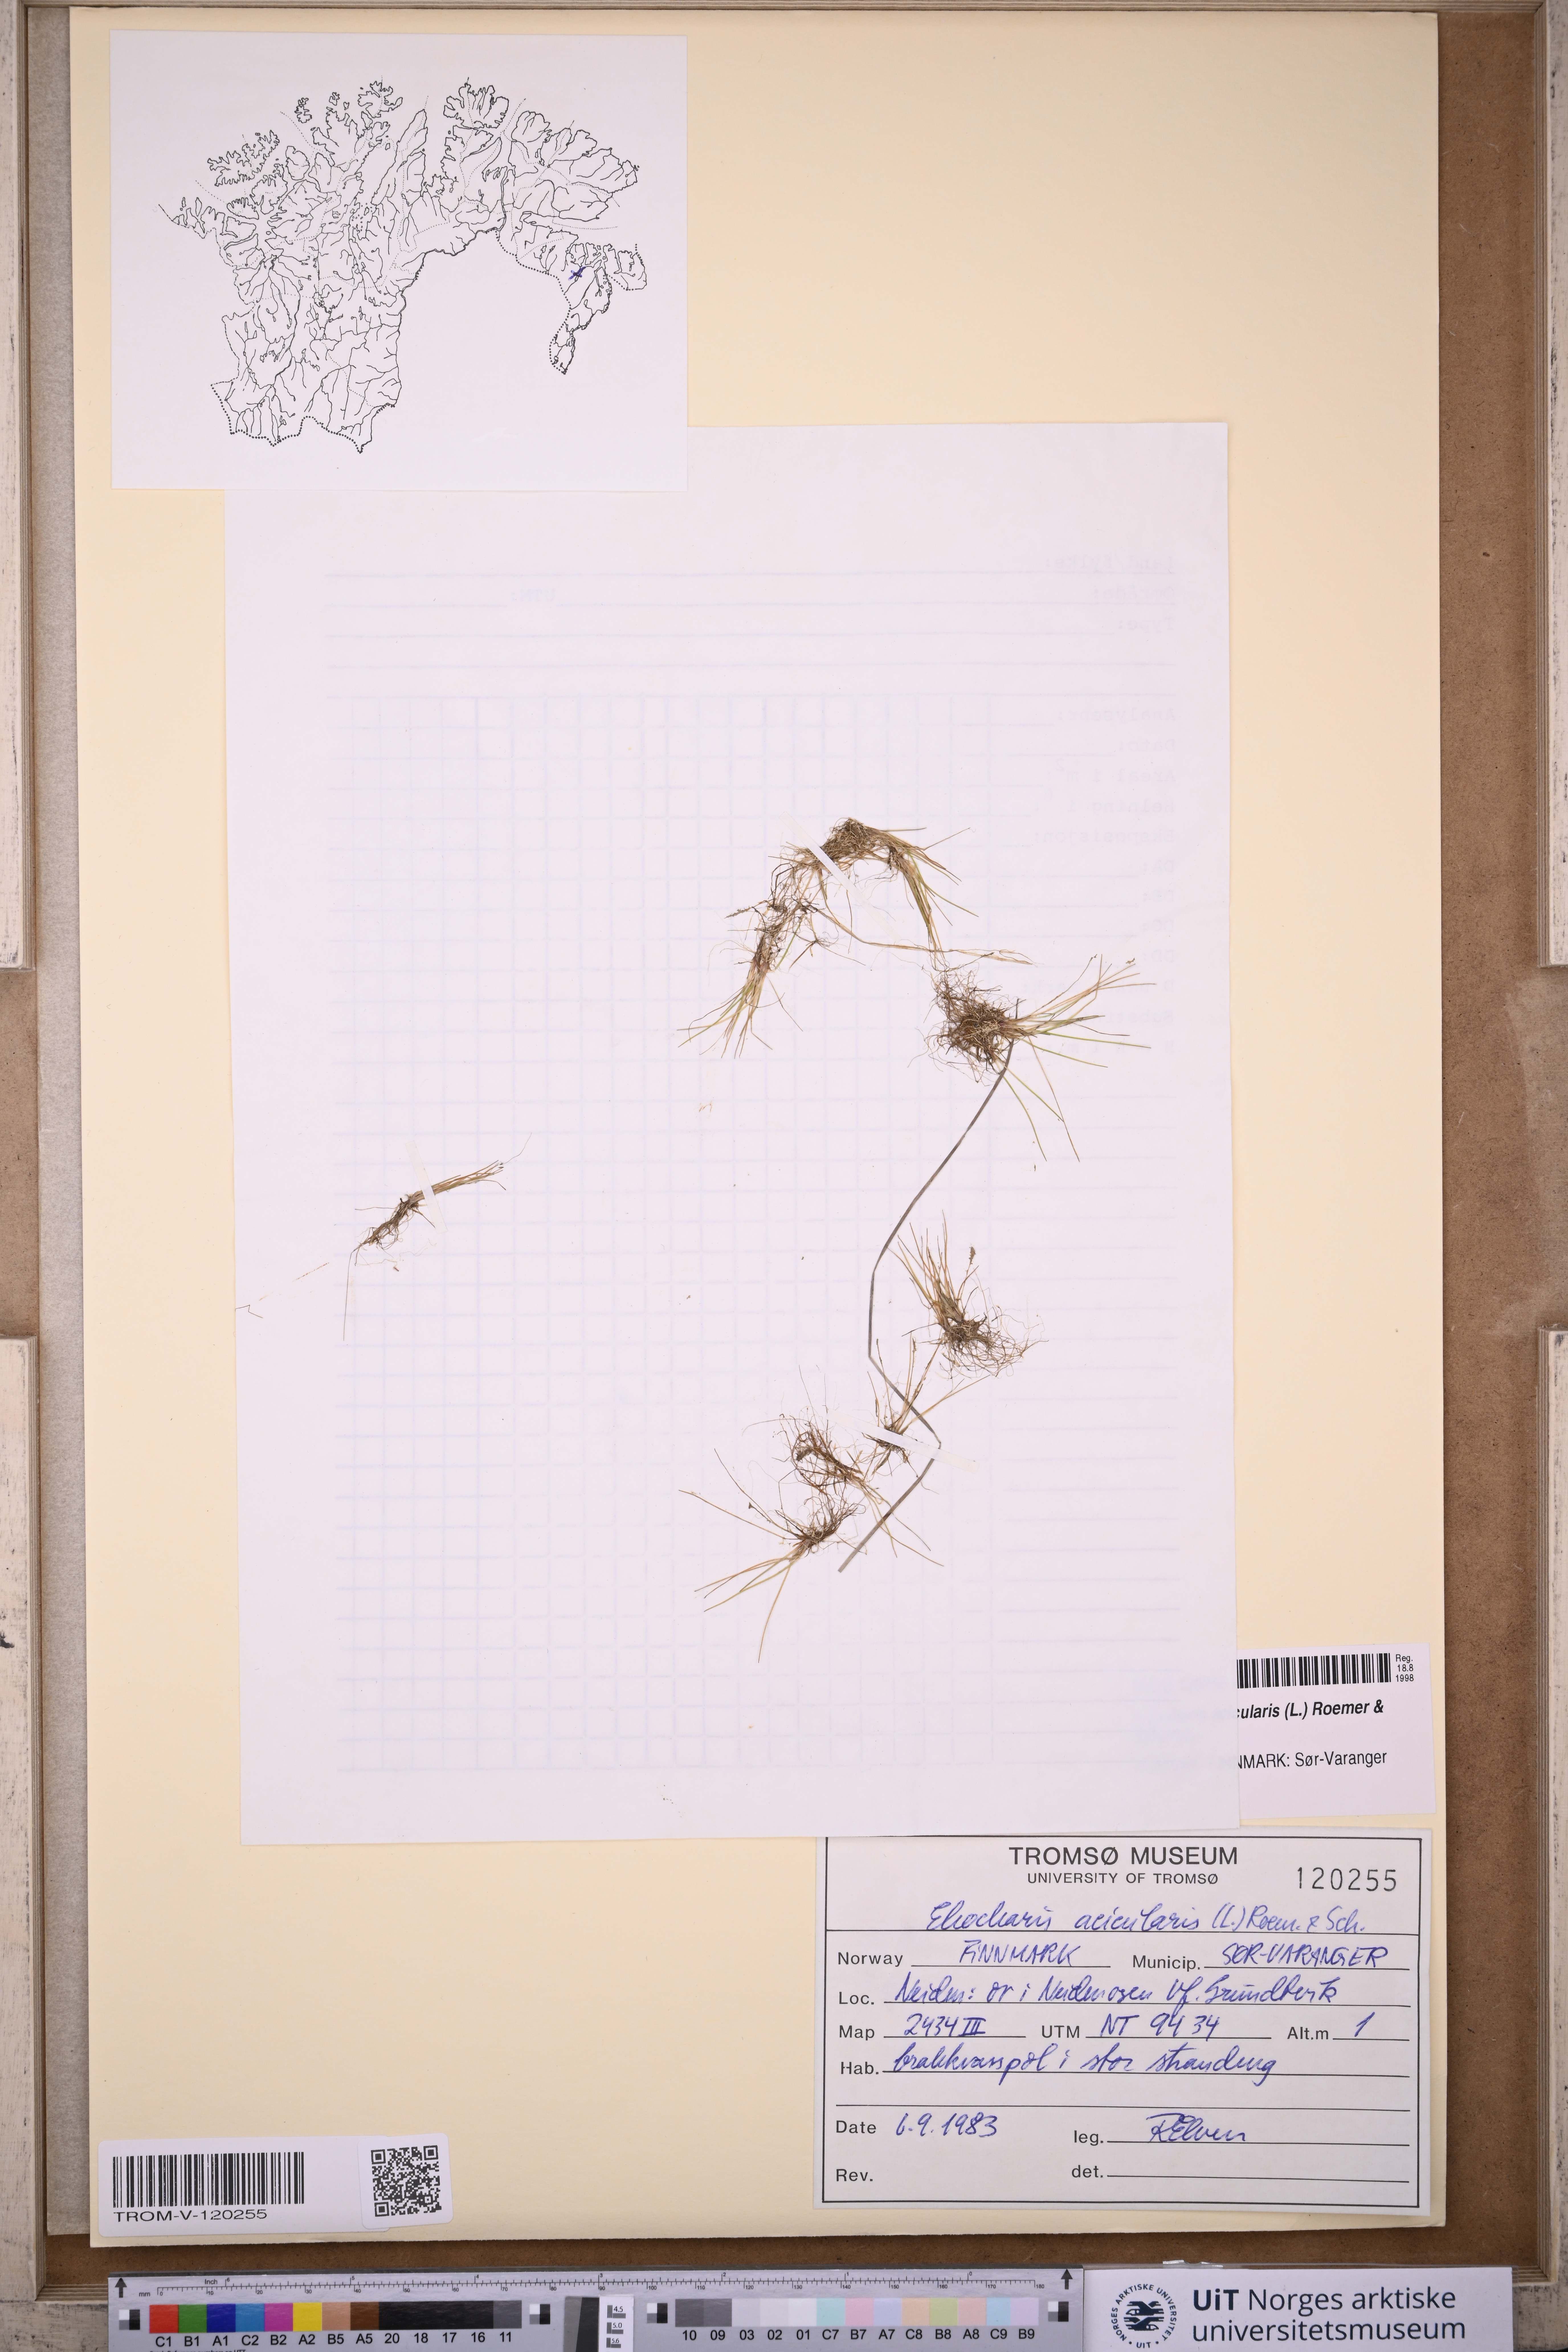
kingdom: Plantae
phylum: Tracheophyta
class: Liliopsida
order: Poales
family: Cyperaceae
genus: Eleocharis
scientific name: Eleocharis acicularis
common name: Needle spike-rush
